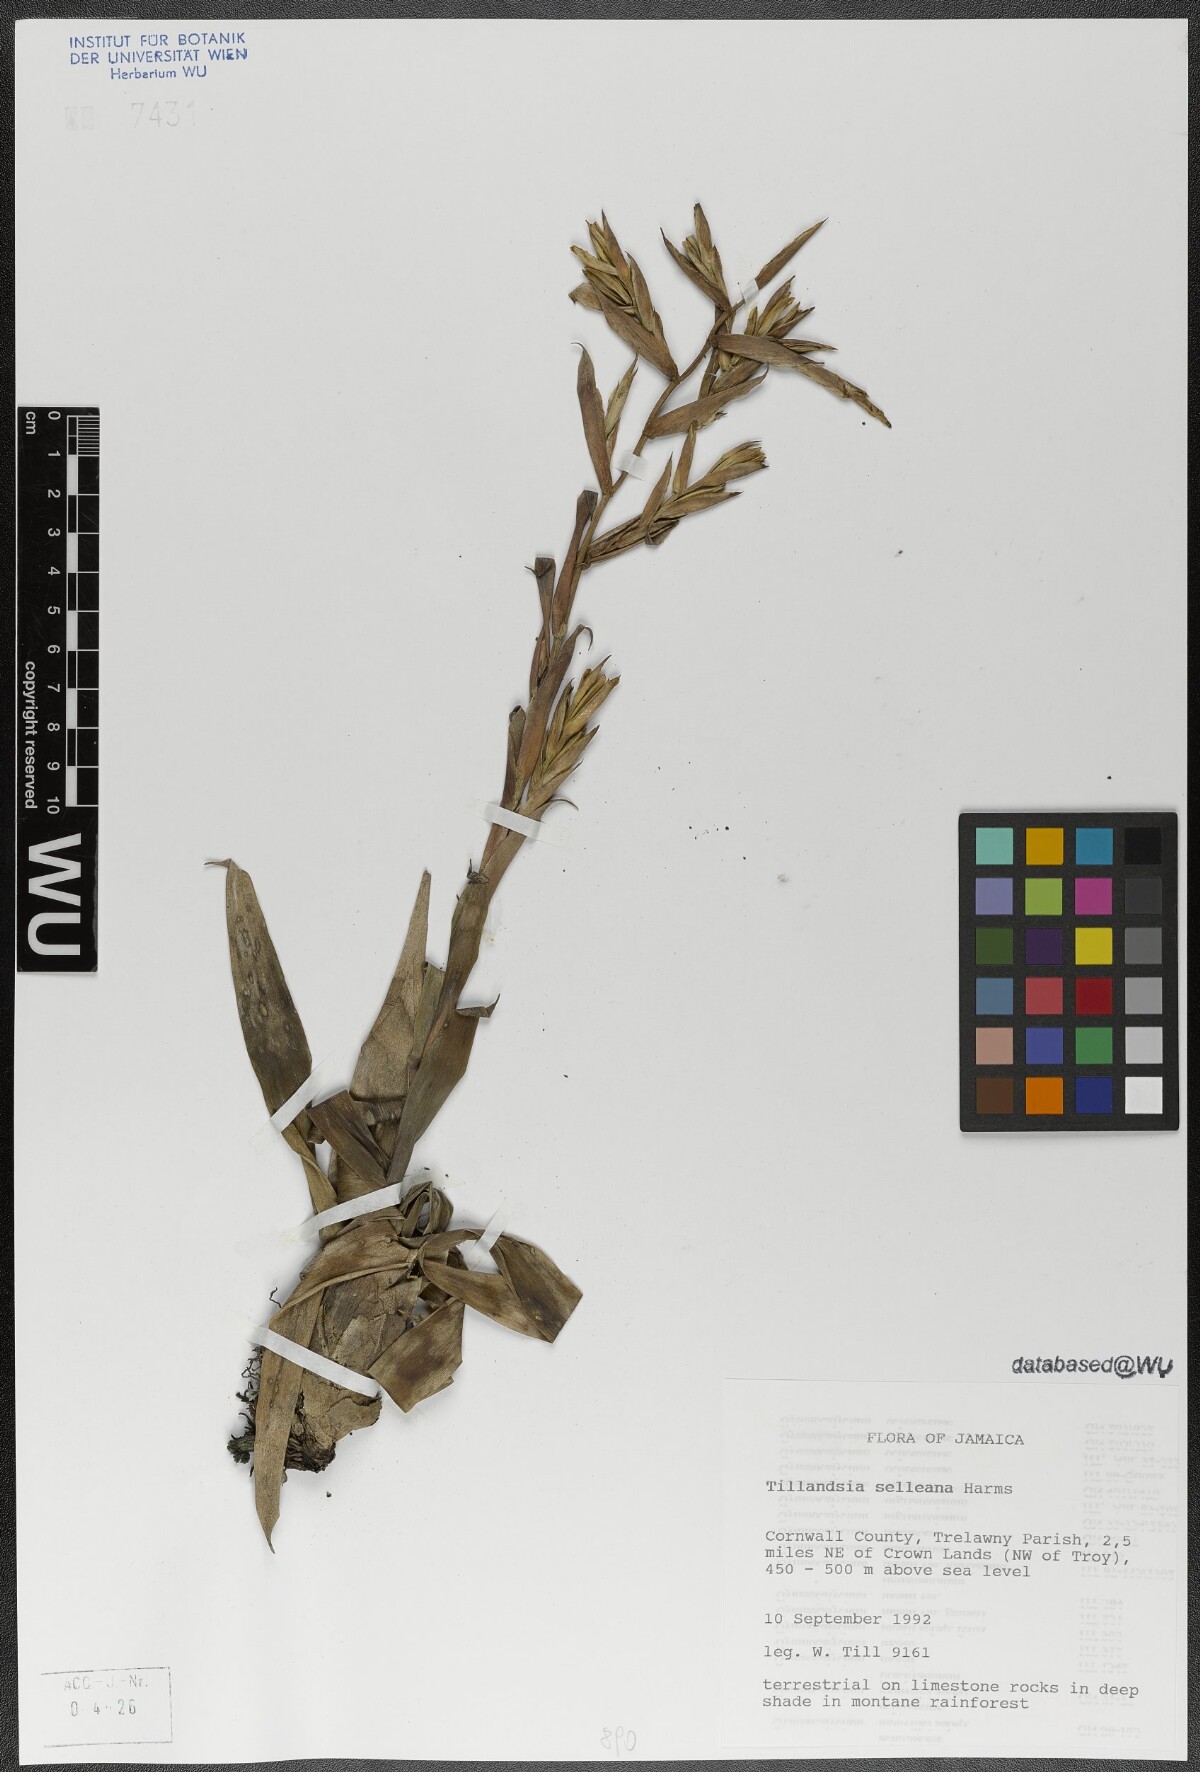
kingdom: Plantae
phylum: Tracheophyta
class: Liliopsida
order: Poales
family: Bromeliaceae
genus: Tillandsia
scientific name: Tillandsia selleana
